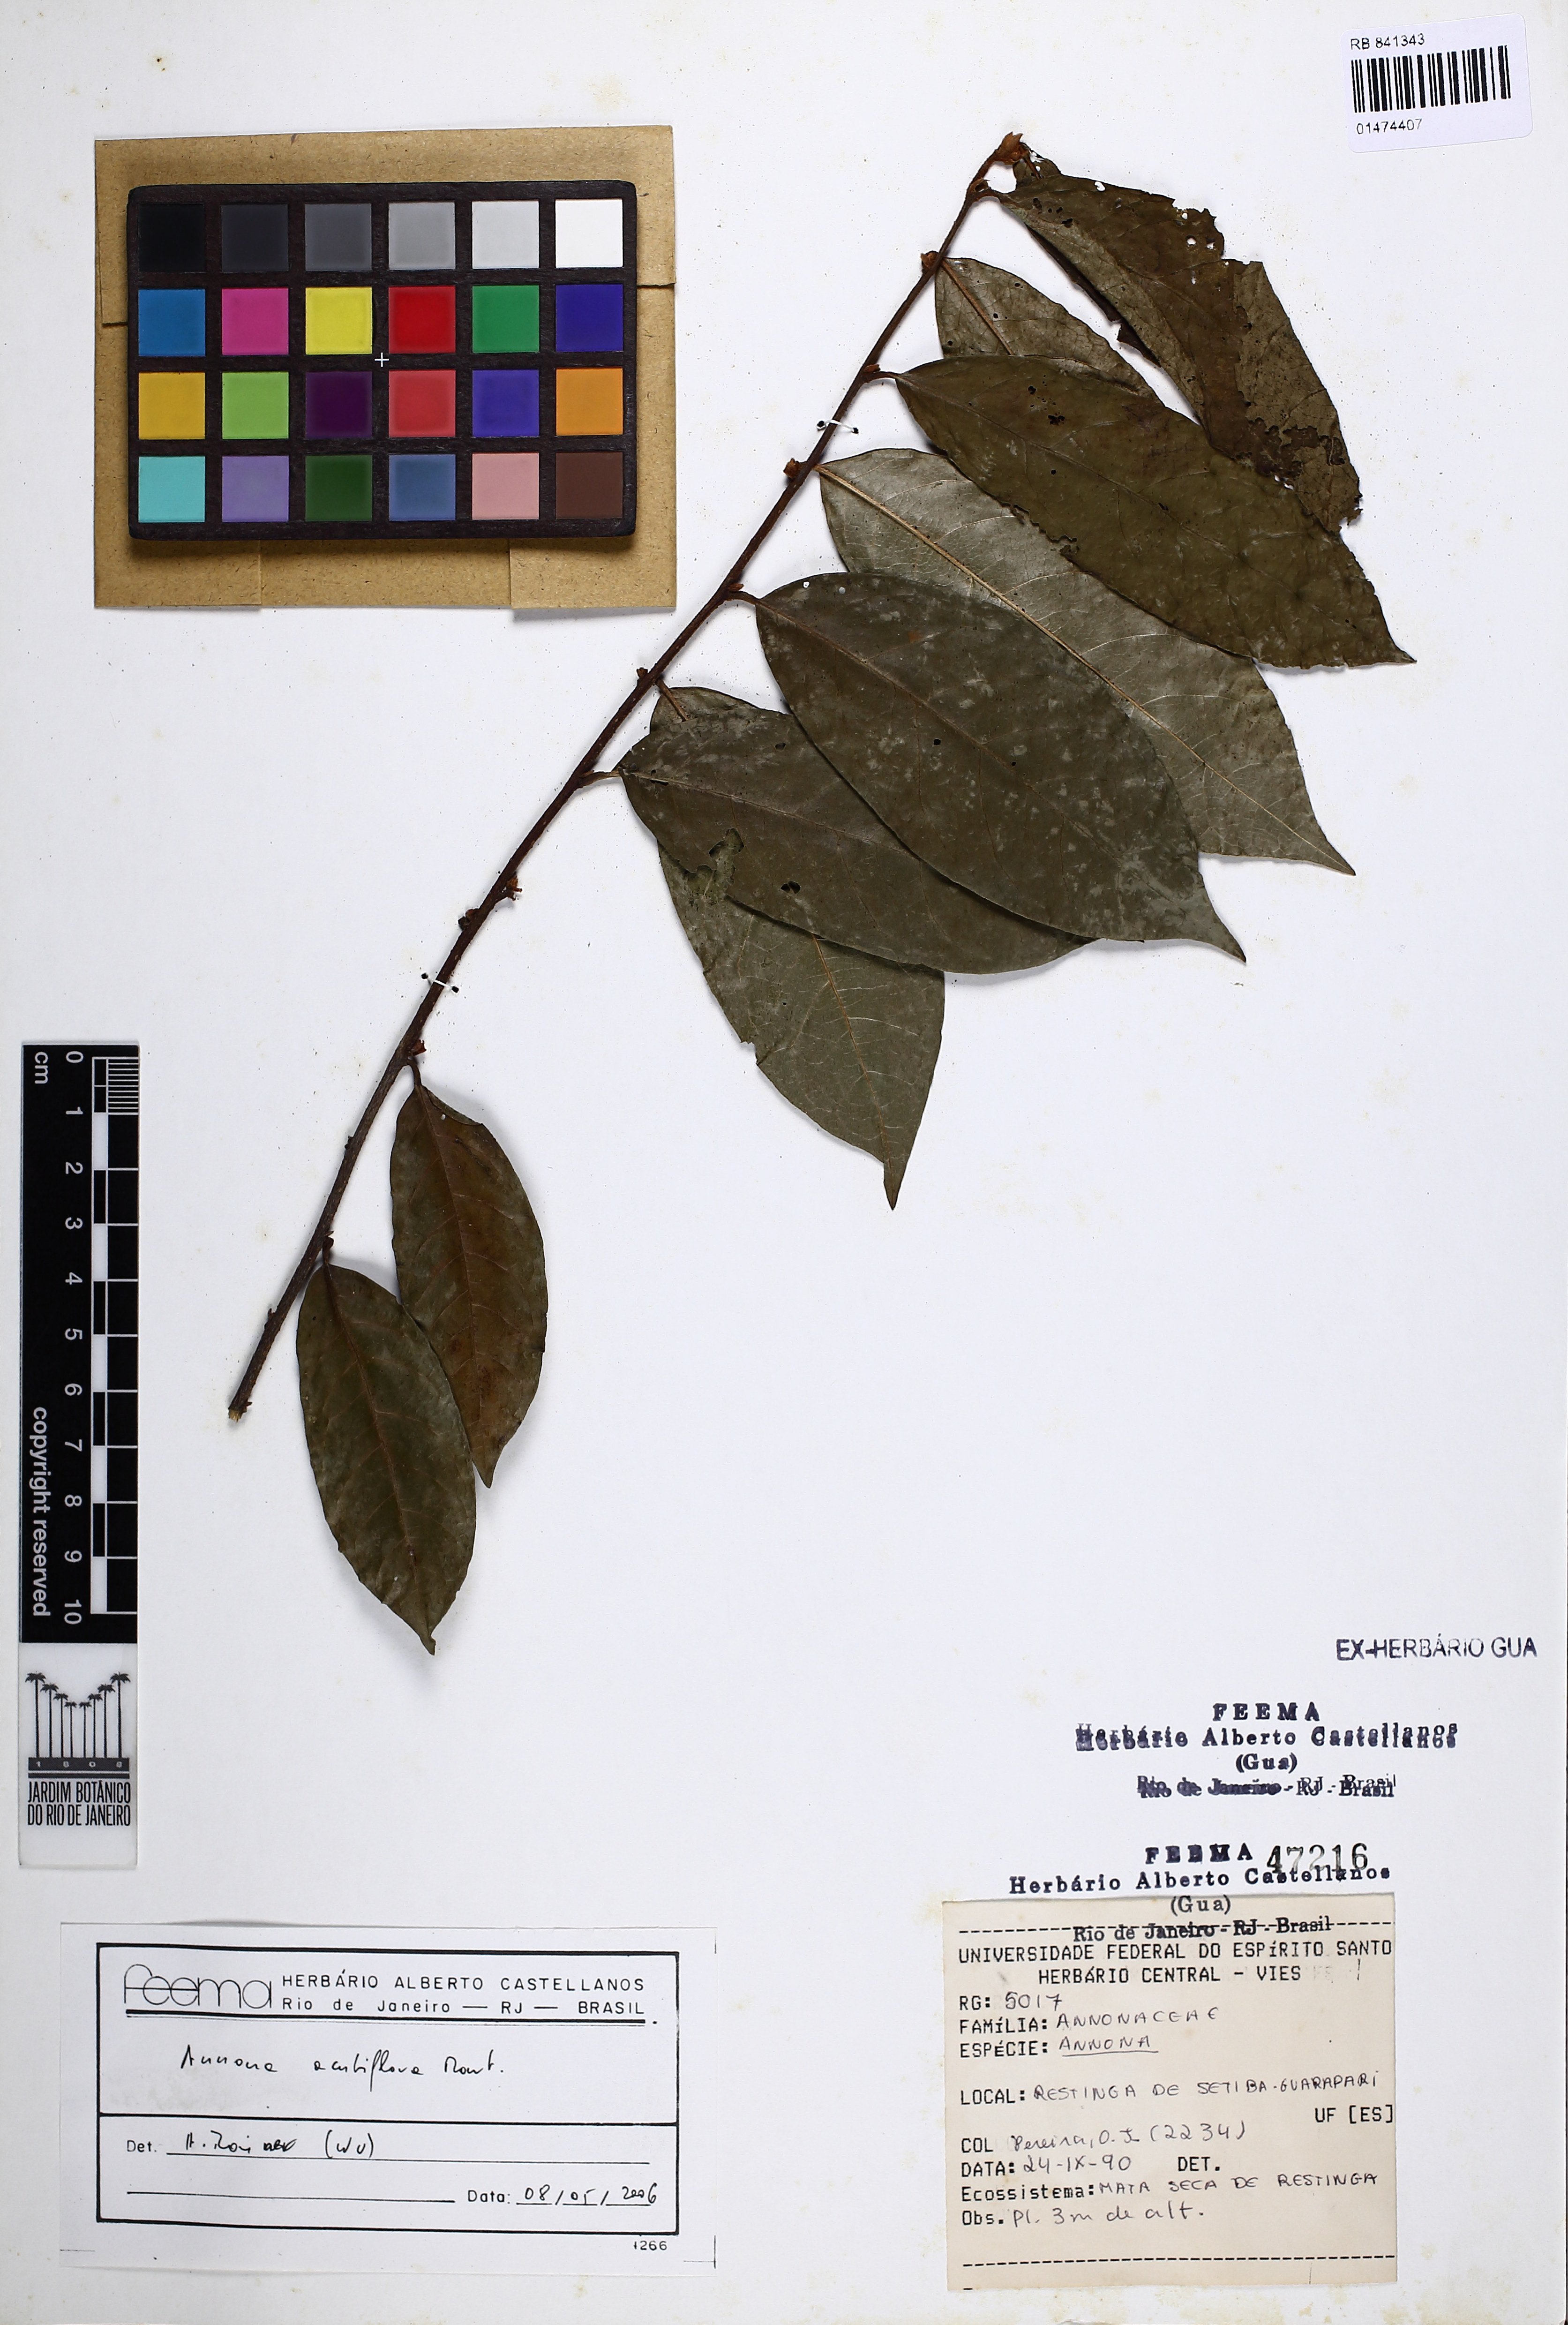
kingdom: Plantae
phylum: Tracheophyta
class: Magnoliopsida
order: Magnoliales
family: Annonaceae
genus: Annona
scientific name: Annona acutiflora
